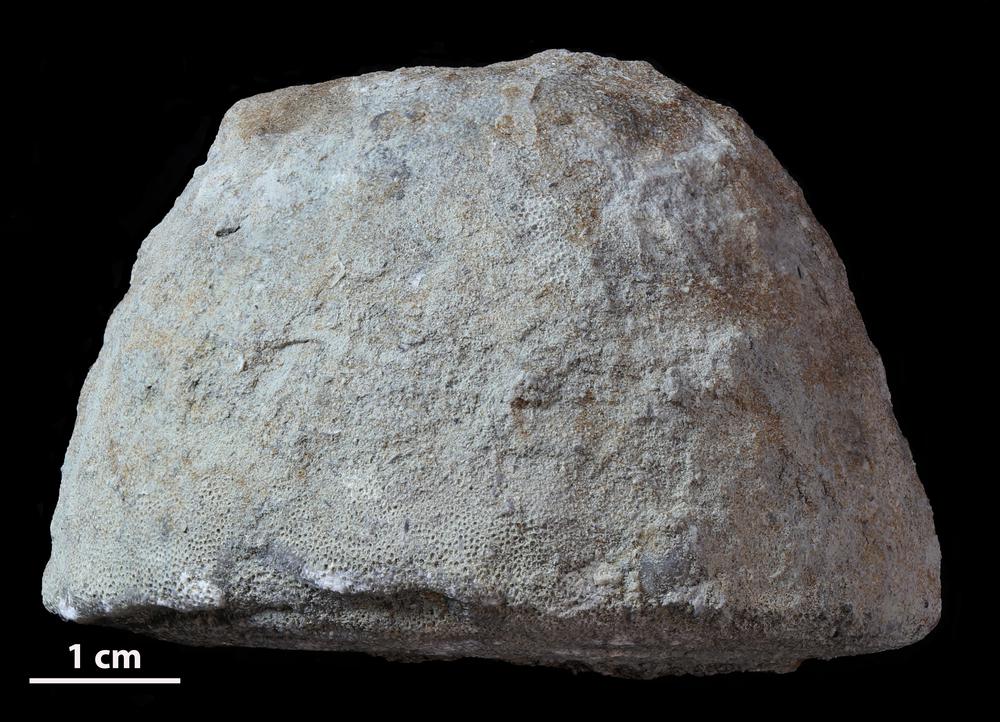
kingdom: Animalia
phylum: Bryozoa
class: Stenolaemata
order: Trepostomatida
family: Diplotrypidae
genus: Diplotrypa
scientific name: Diplotrypa petropolitana
